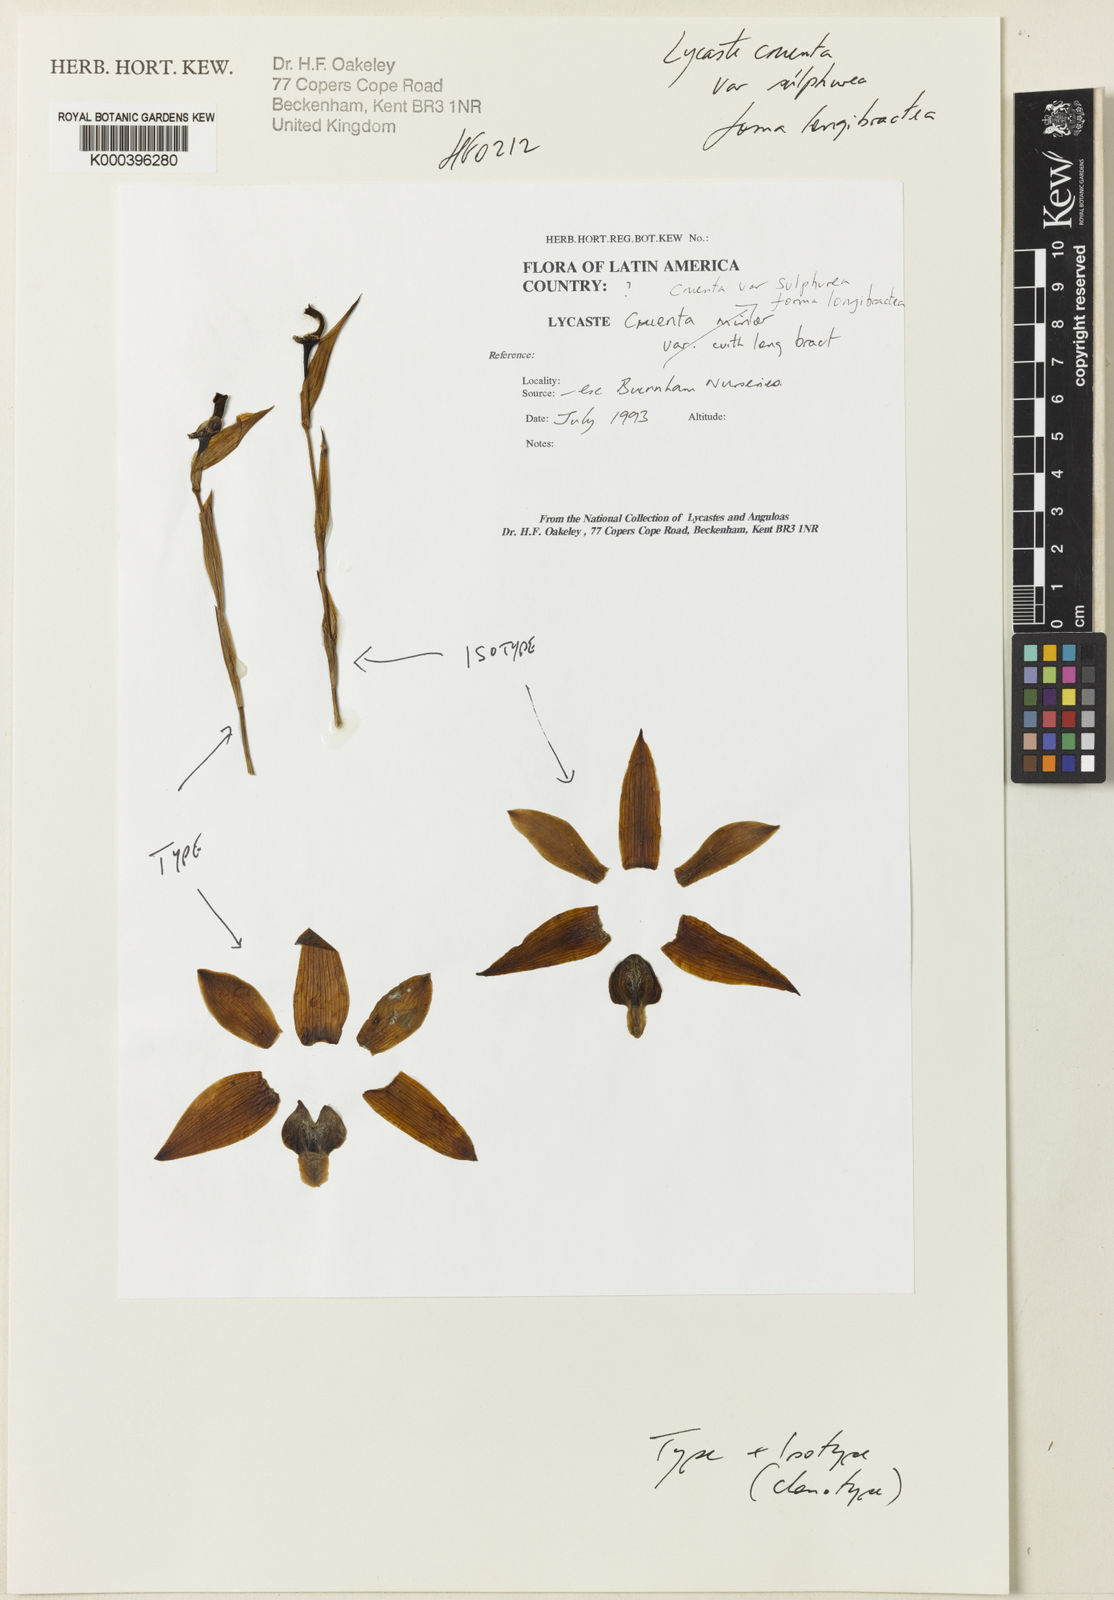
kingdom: Plantae
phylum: Tracheophyta
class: Liliopsida
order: Asparagales
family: Orchidaceae
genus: Lycaste
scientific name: Lycaste cruenta
